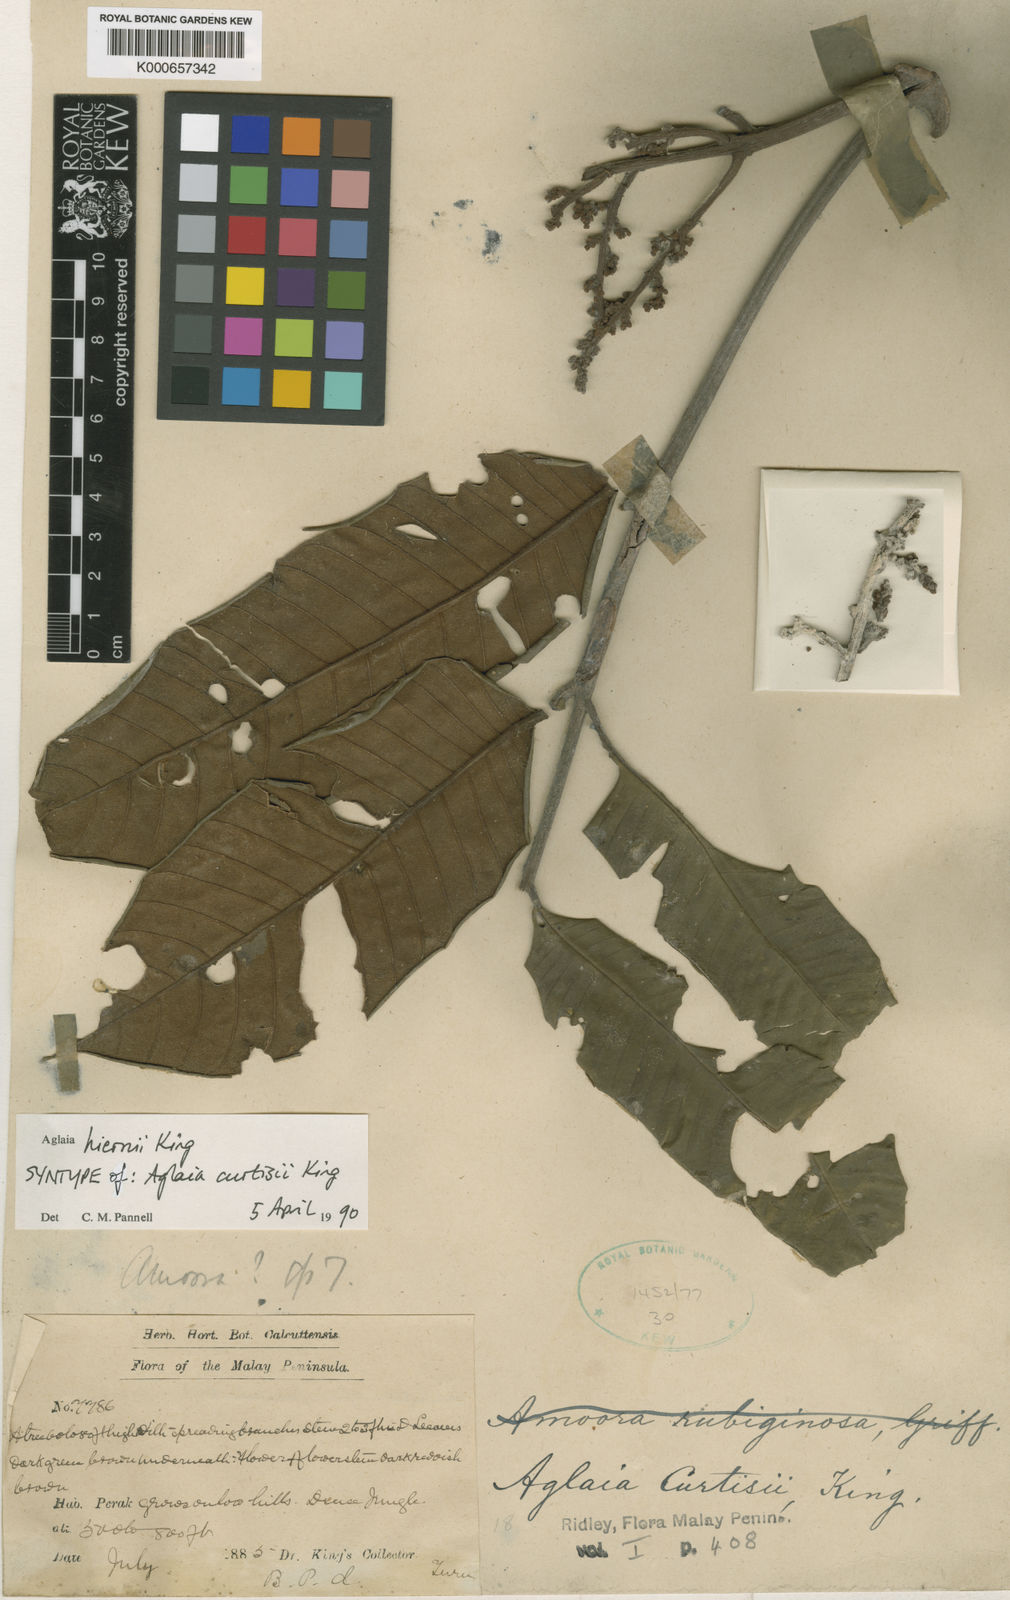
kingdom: Plantae
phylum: Tracheophyta
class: Magnoliopsida
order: Sapindales
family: Meliaceae
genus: Aglaia
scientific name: Aglaia hiernii
